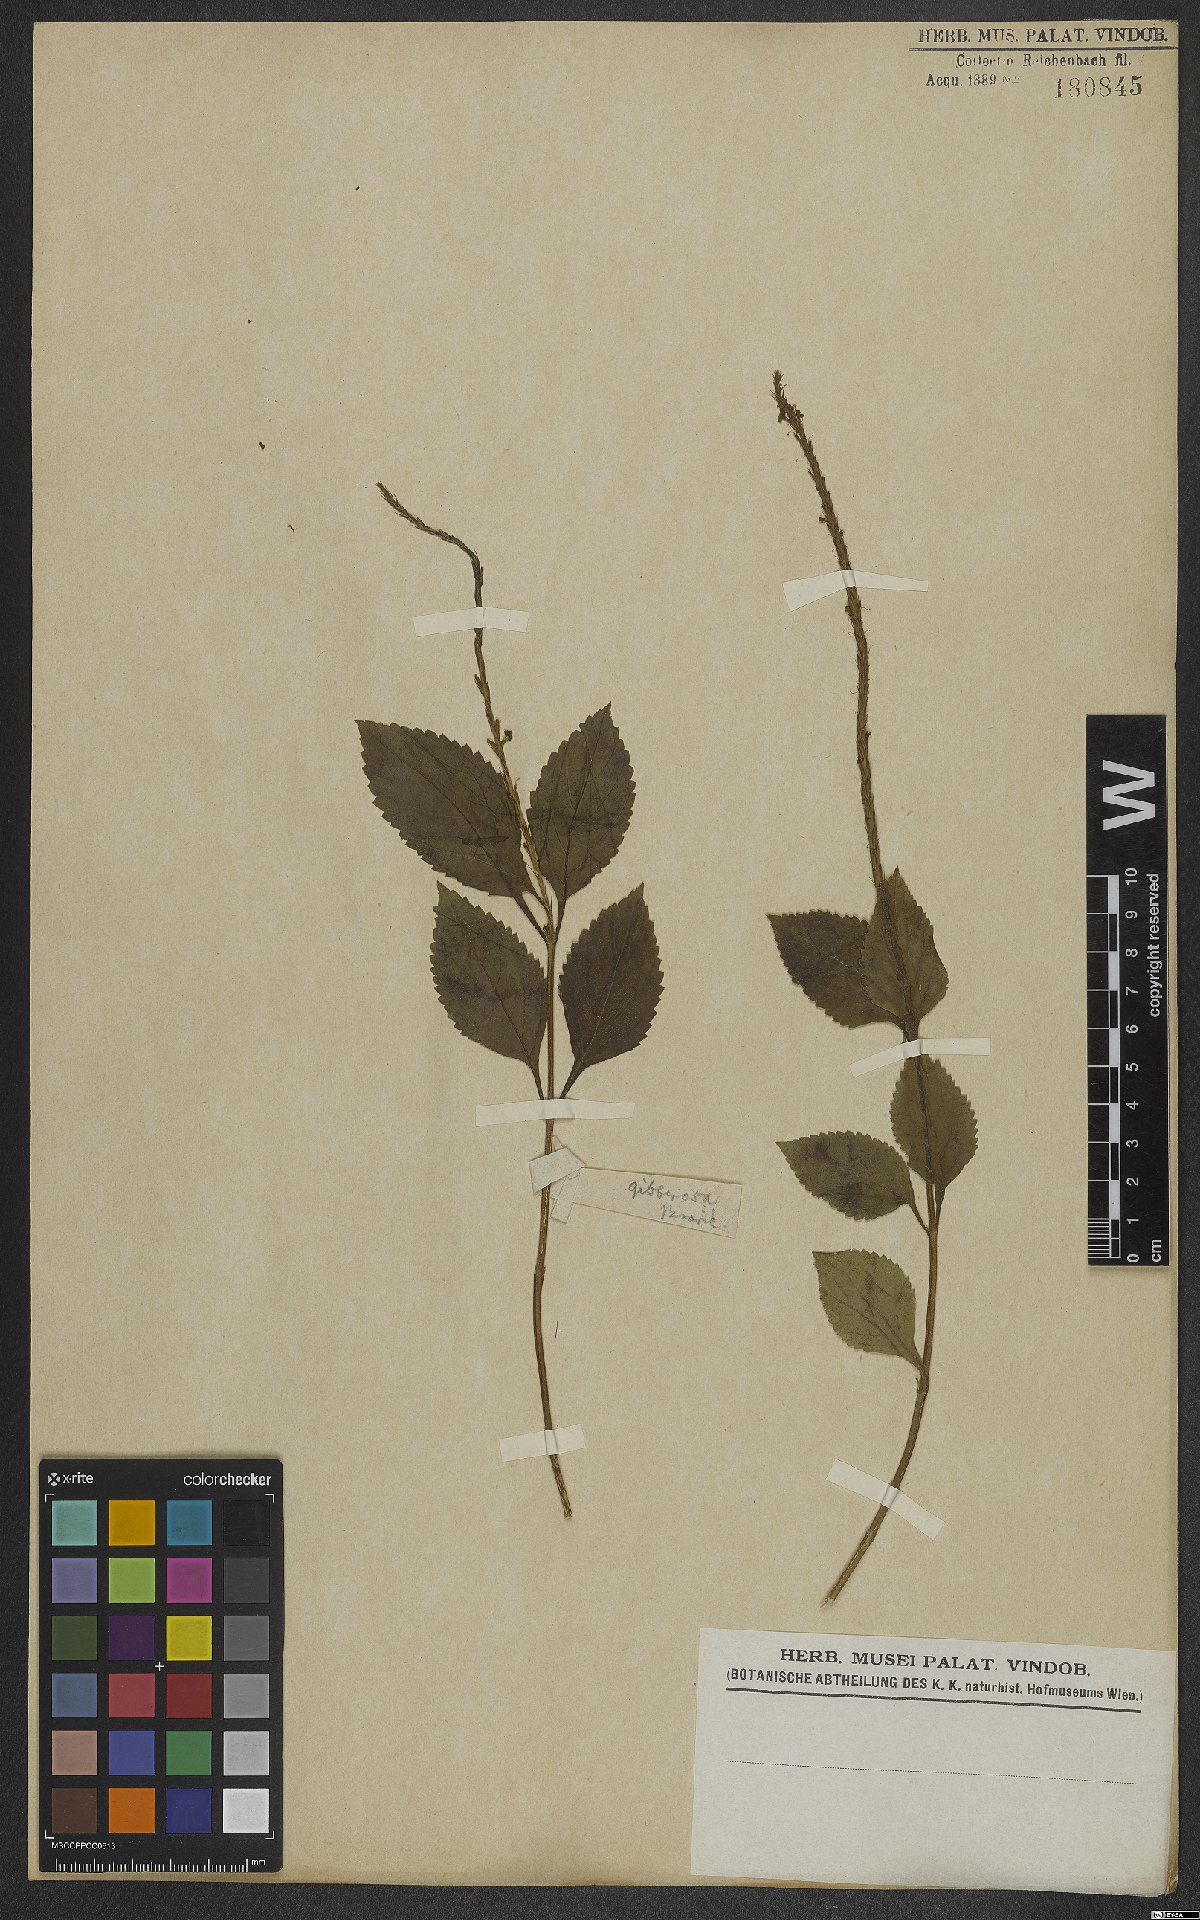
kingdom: Plantae
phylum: Tracheophyta
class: Magnoliopsida
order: Lamiales
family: Verbenaceae
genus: Stachytarpheta
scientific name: Stachytarpheta cayennensis
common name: Cayenne porterweed
